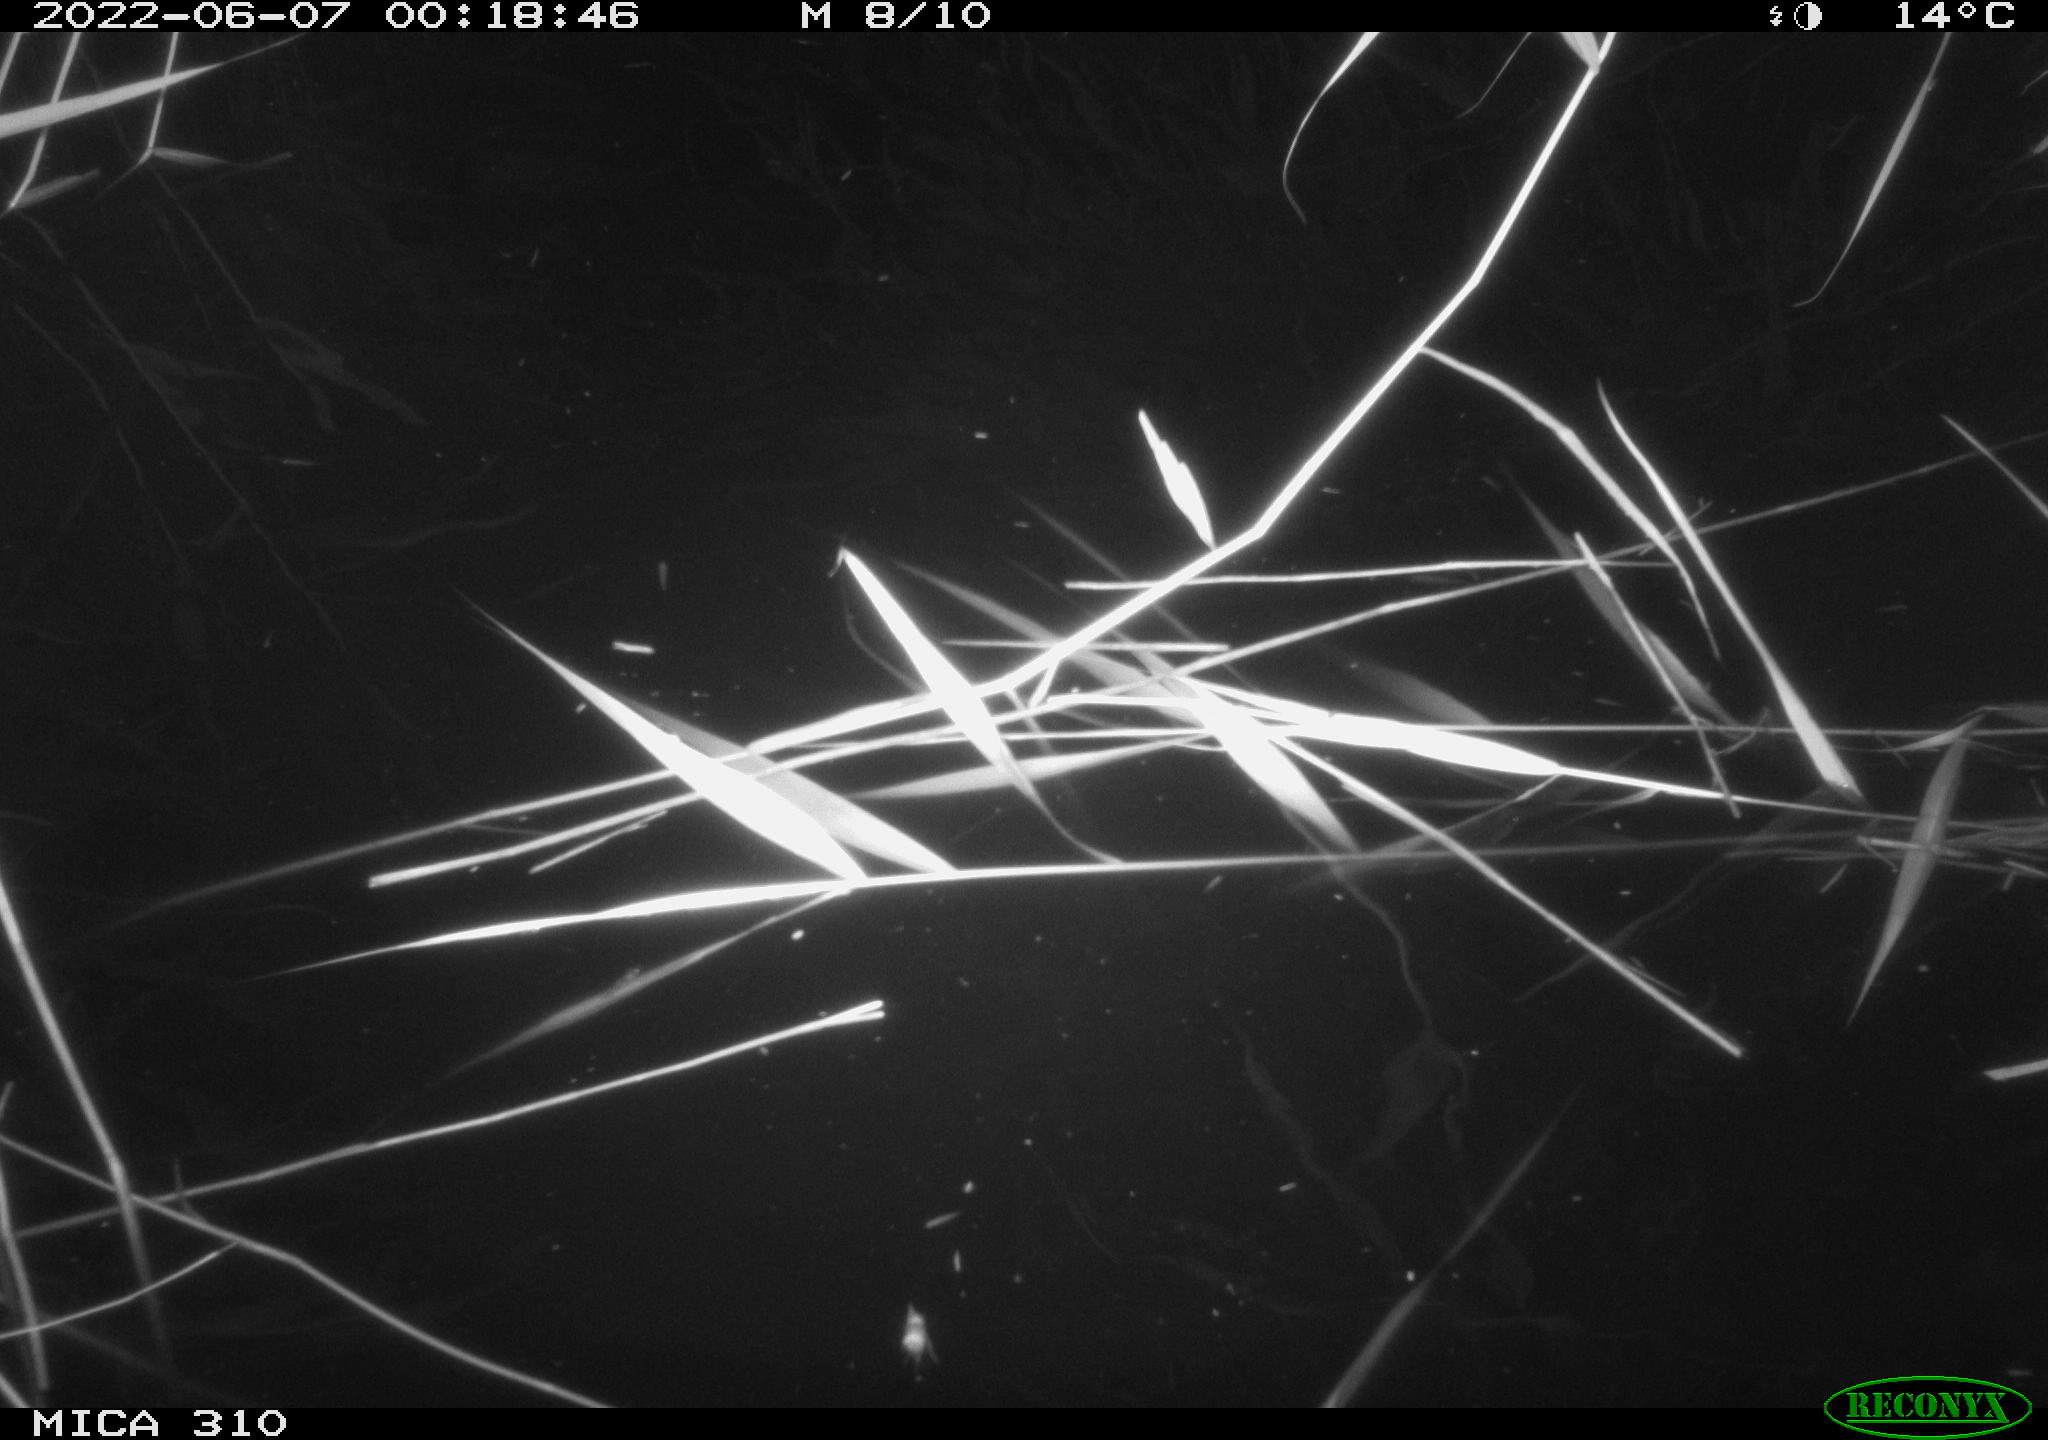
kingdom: Animalia
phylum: Chordata
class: Aves
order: Anseriformes
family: Anatidae
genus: Anas
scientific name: Anas platyrhynchos
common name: Mallard
